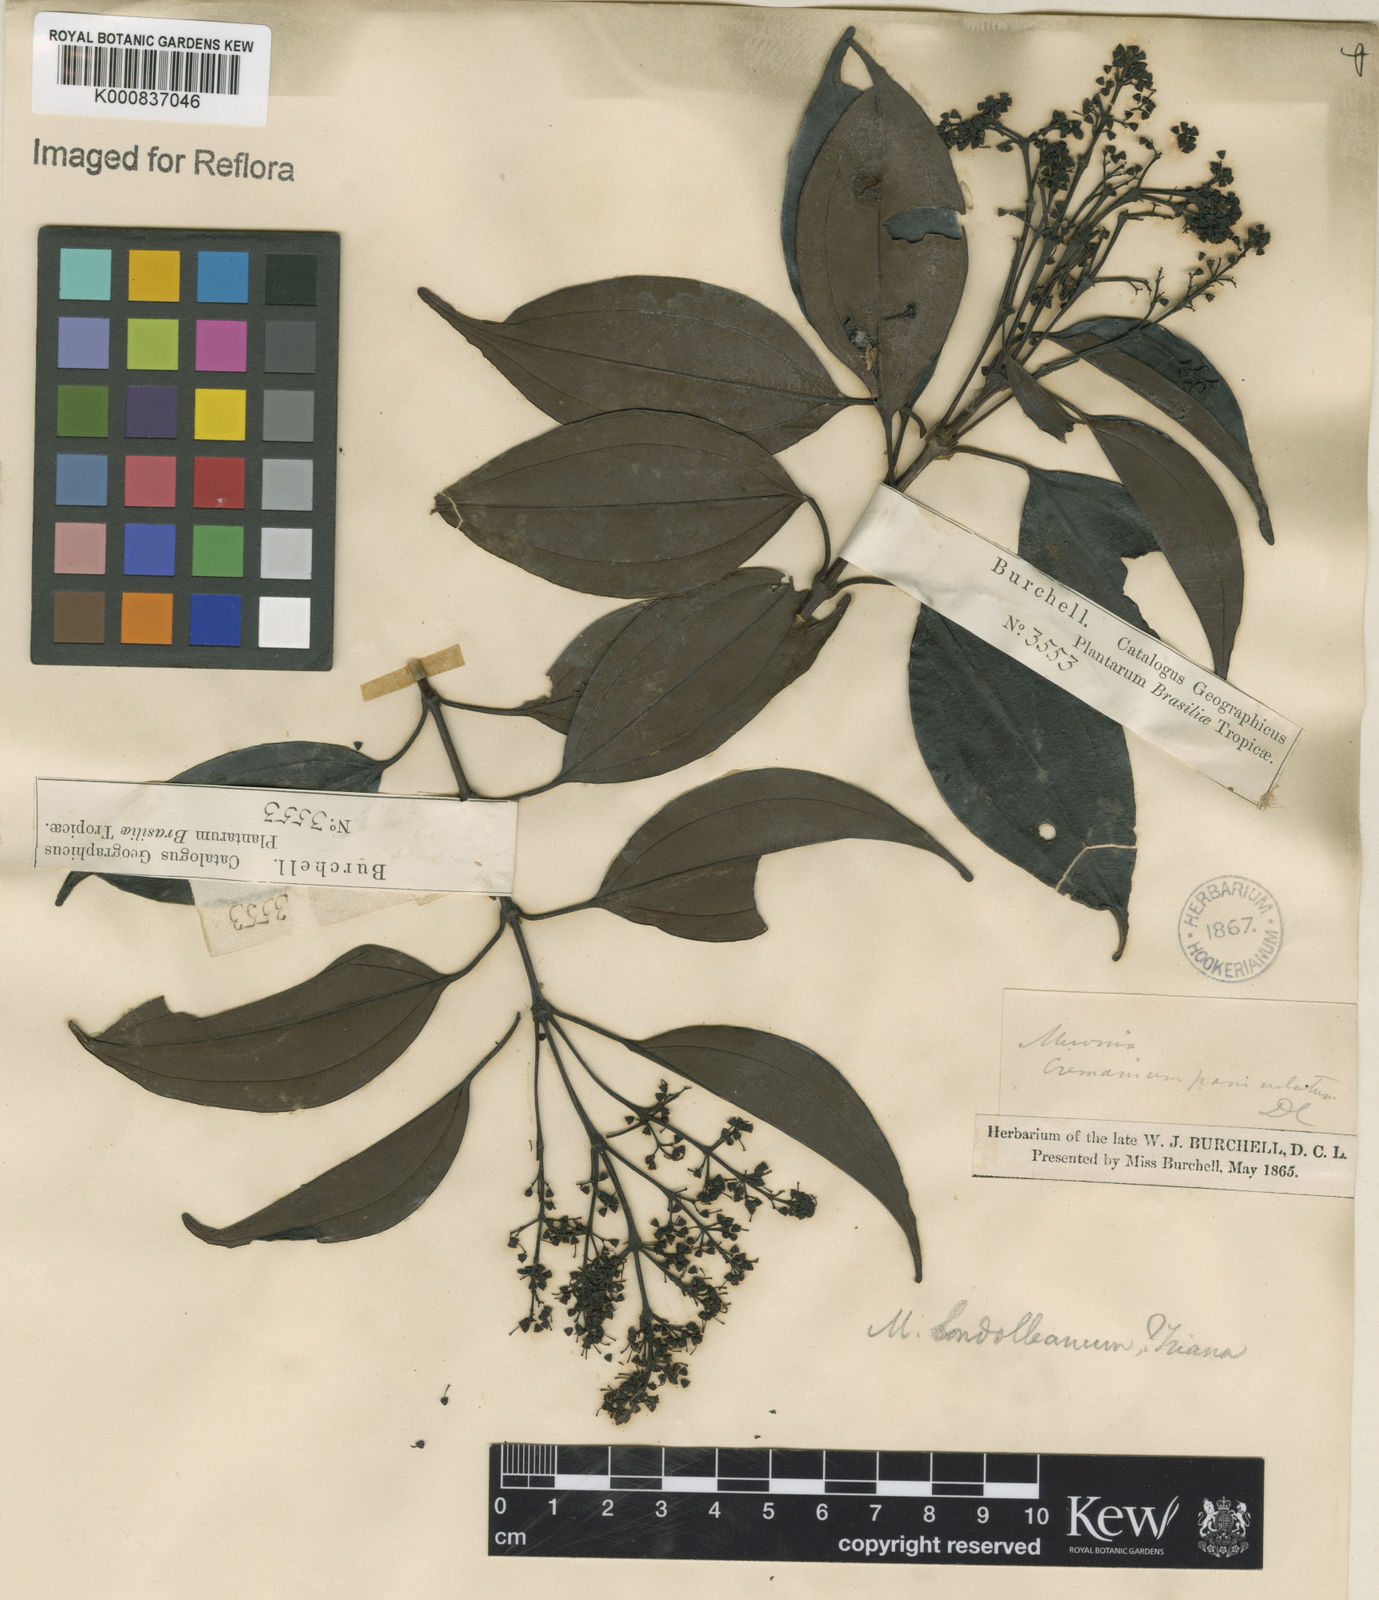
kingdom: Plantae
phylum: Tracheophyta
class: Magnoliopsida
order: Myrtales
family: Melastomataceae
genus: Miconia
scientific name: Miconia cinnamomifolia
